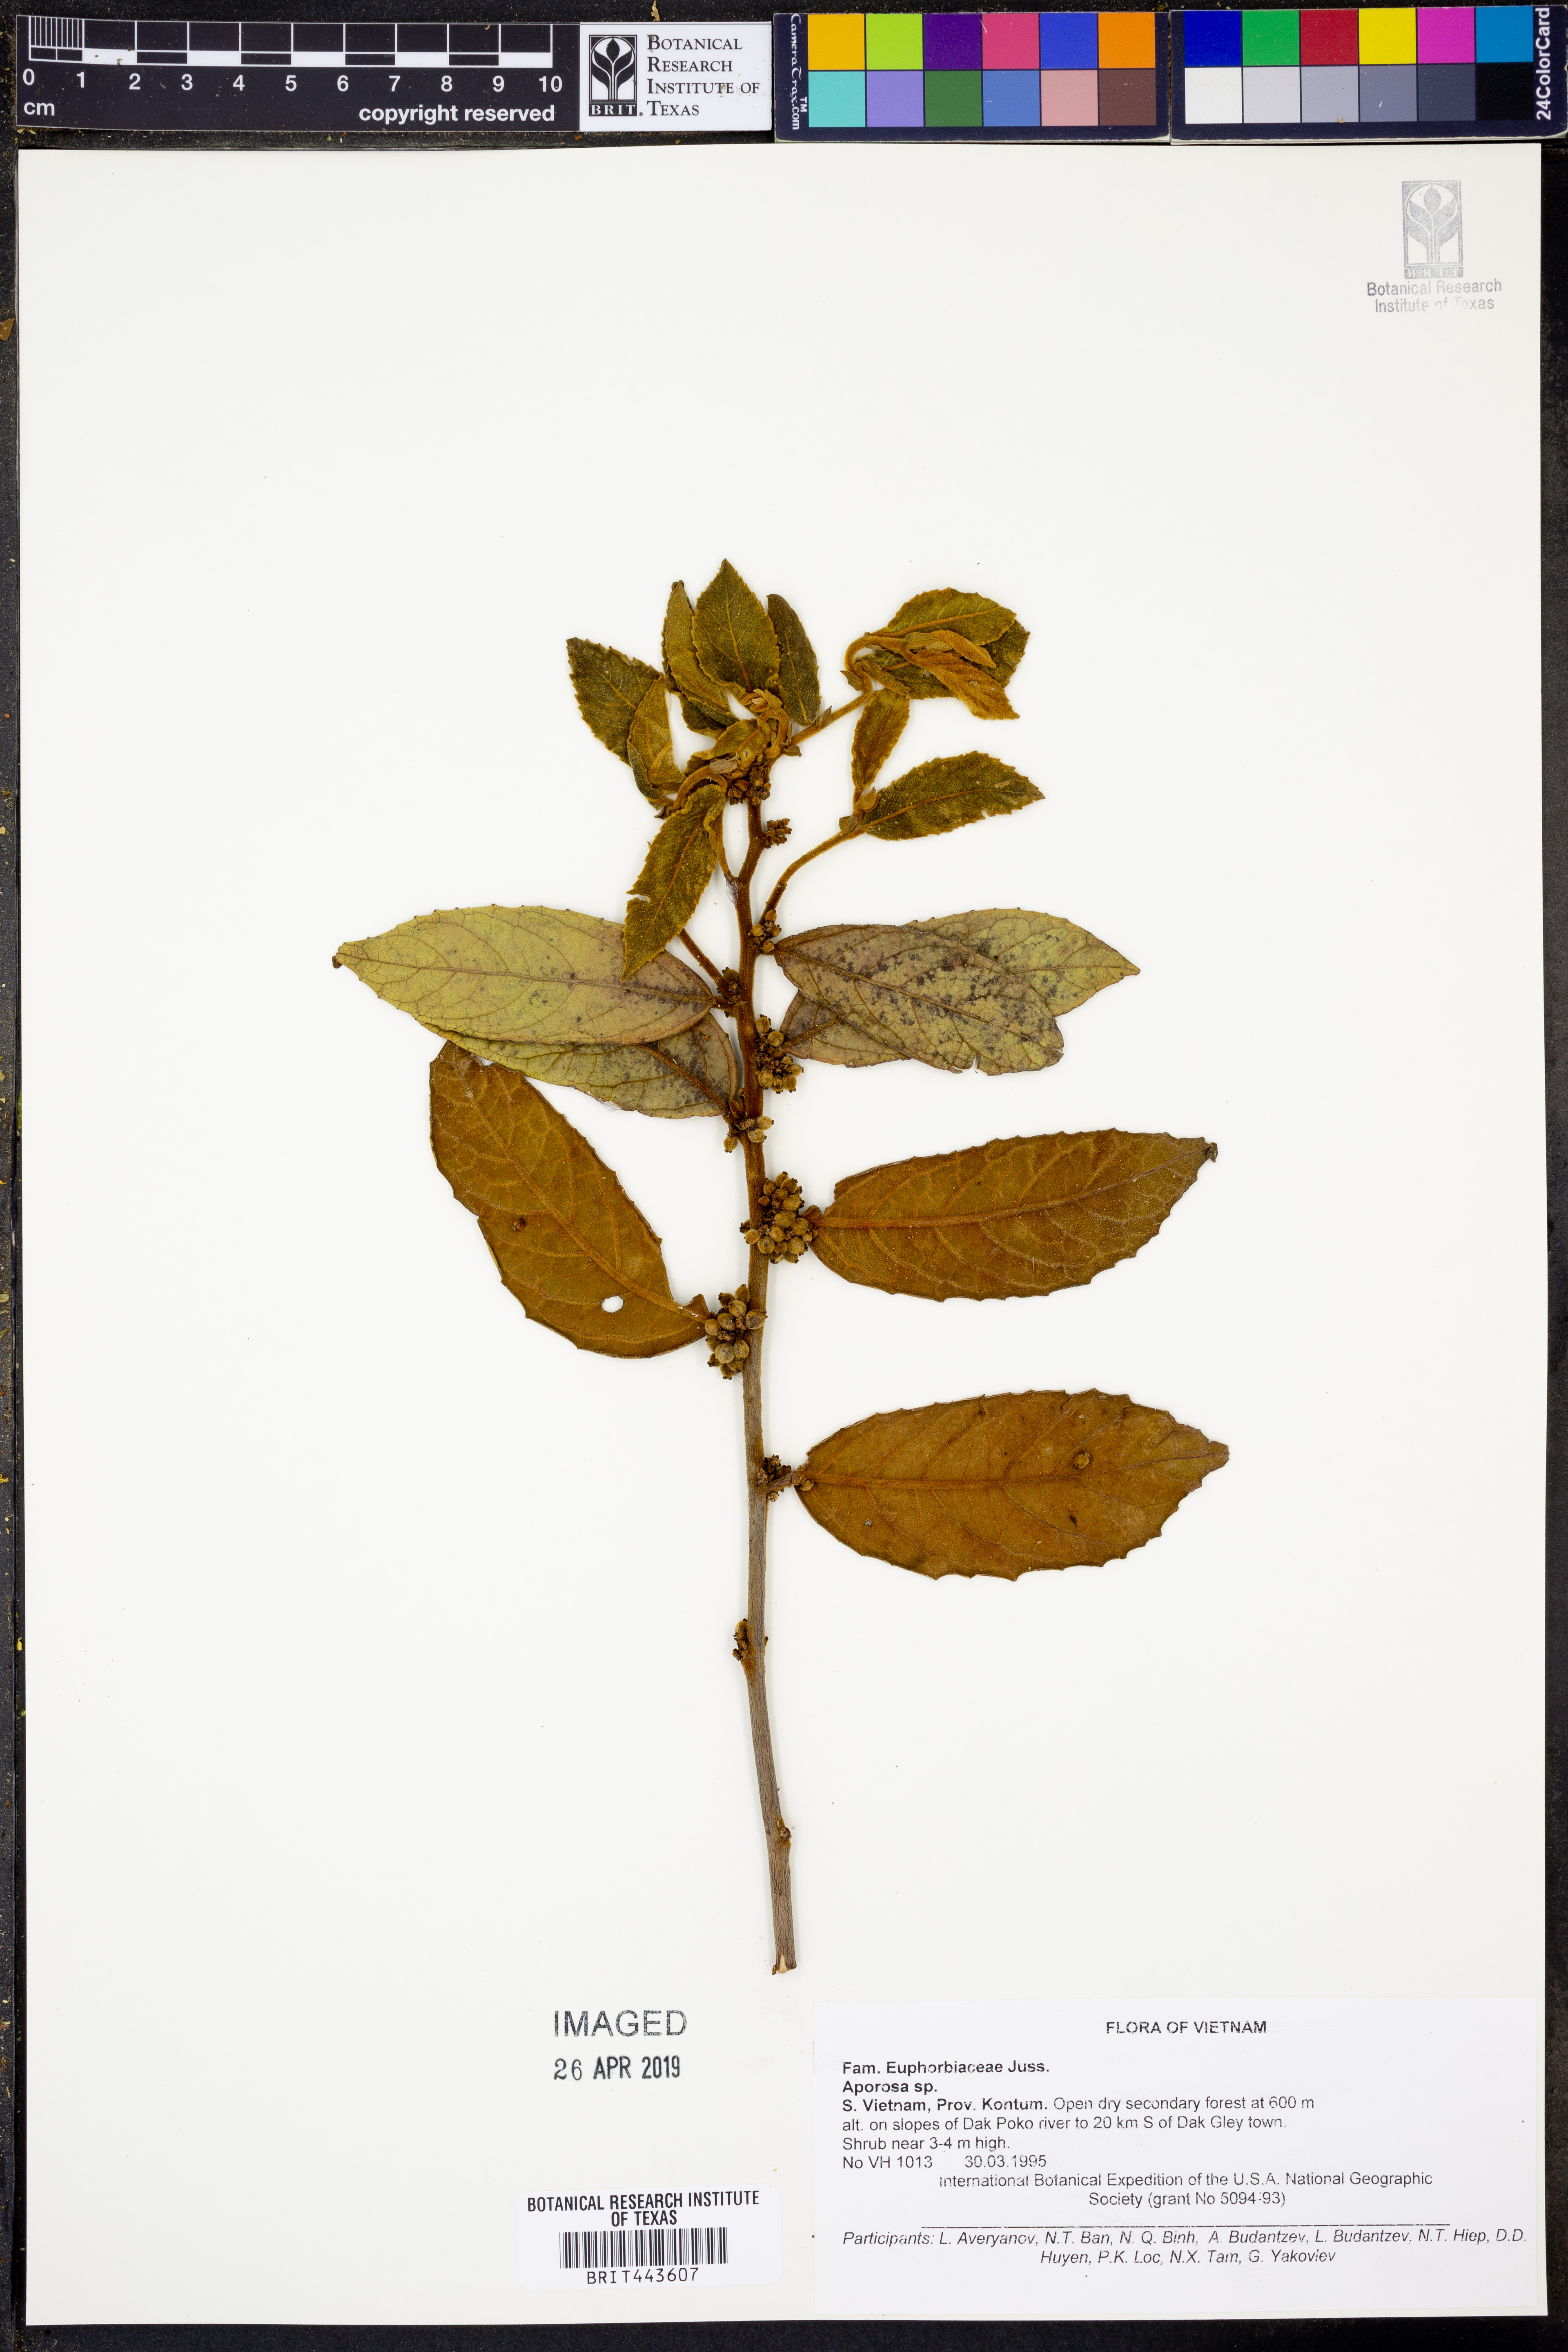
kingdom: Plantae
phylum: Tracheophyta
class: Magnoliopsida
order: Malpighiales
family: Phyllanthaceae
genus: Aporosa
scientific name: Aporosa
